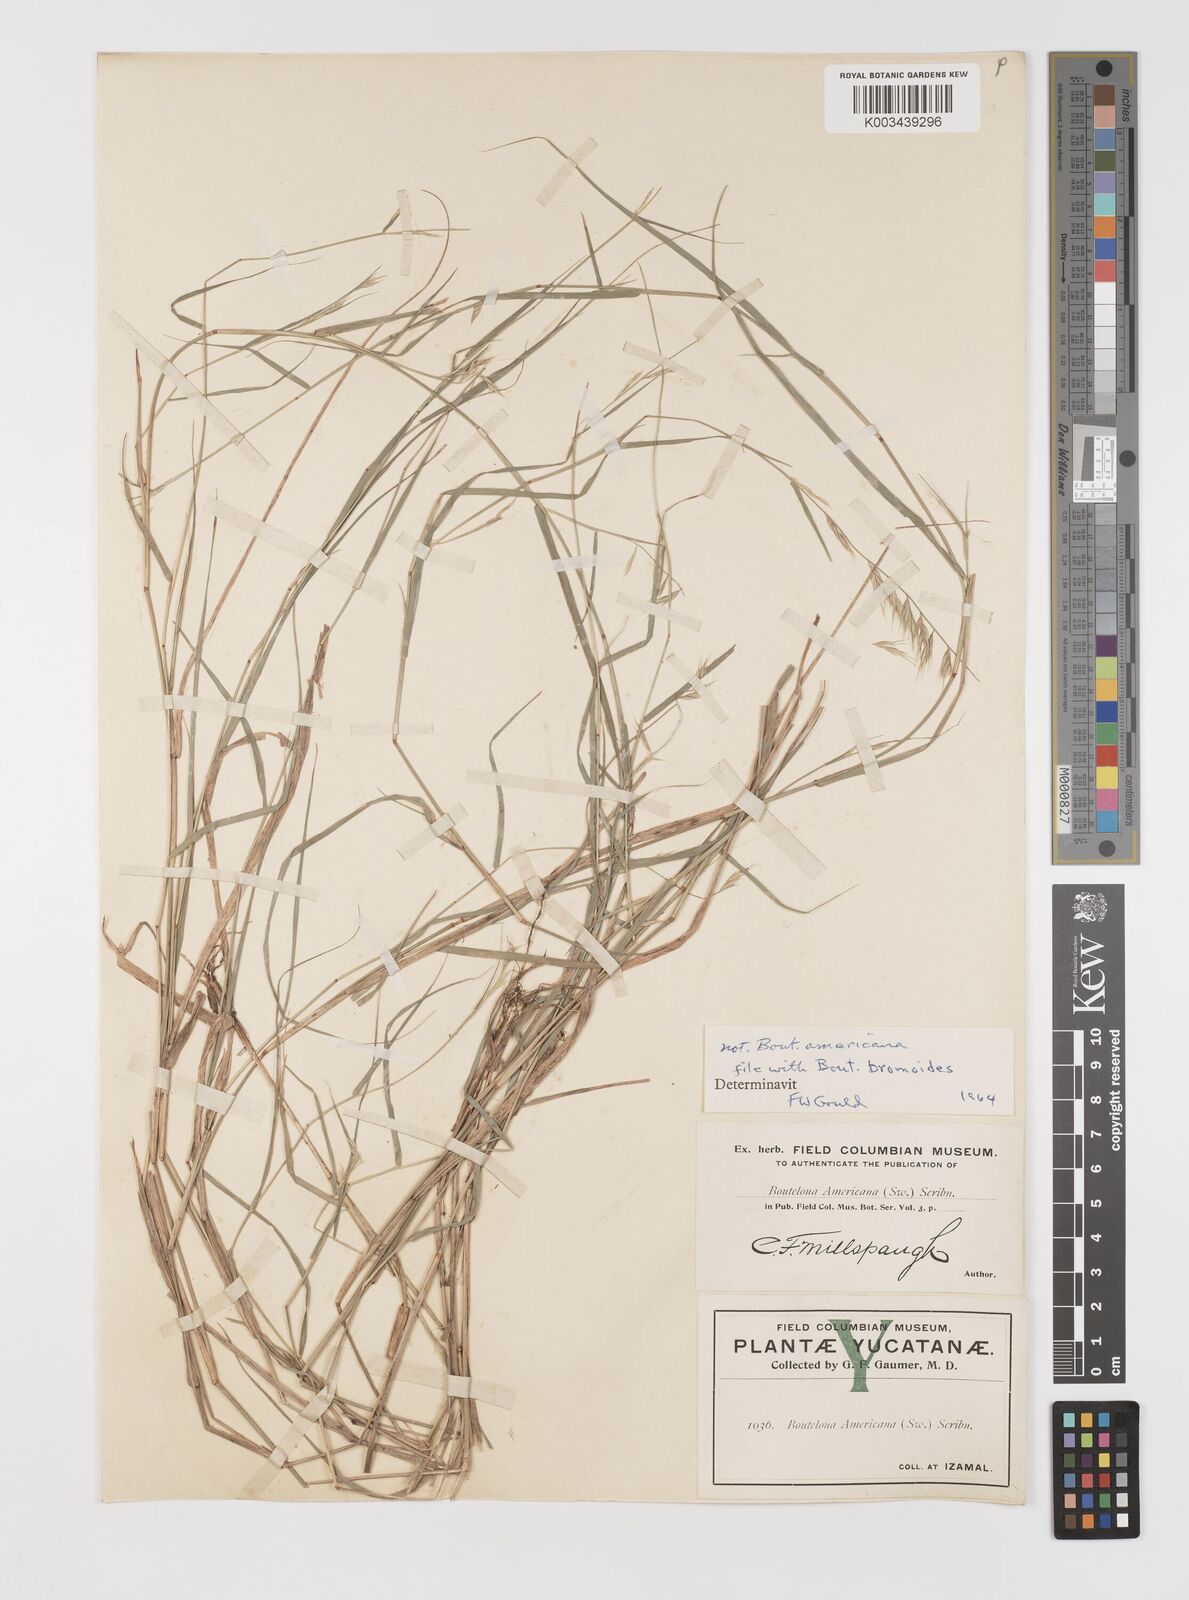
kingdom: Plantae
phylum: Tracheophyta
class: Liliopsida
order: Poales
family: Poaceae
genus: Bouteloua
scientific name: Bouteloua repens
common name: Slender grama
